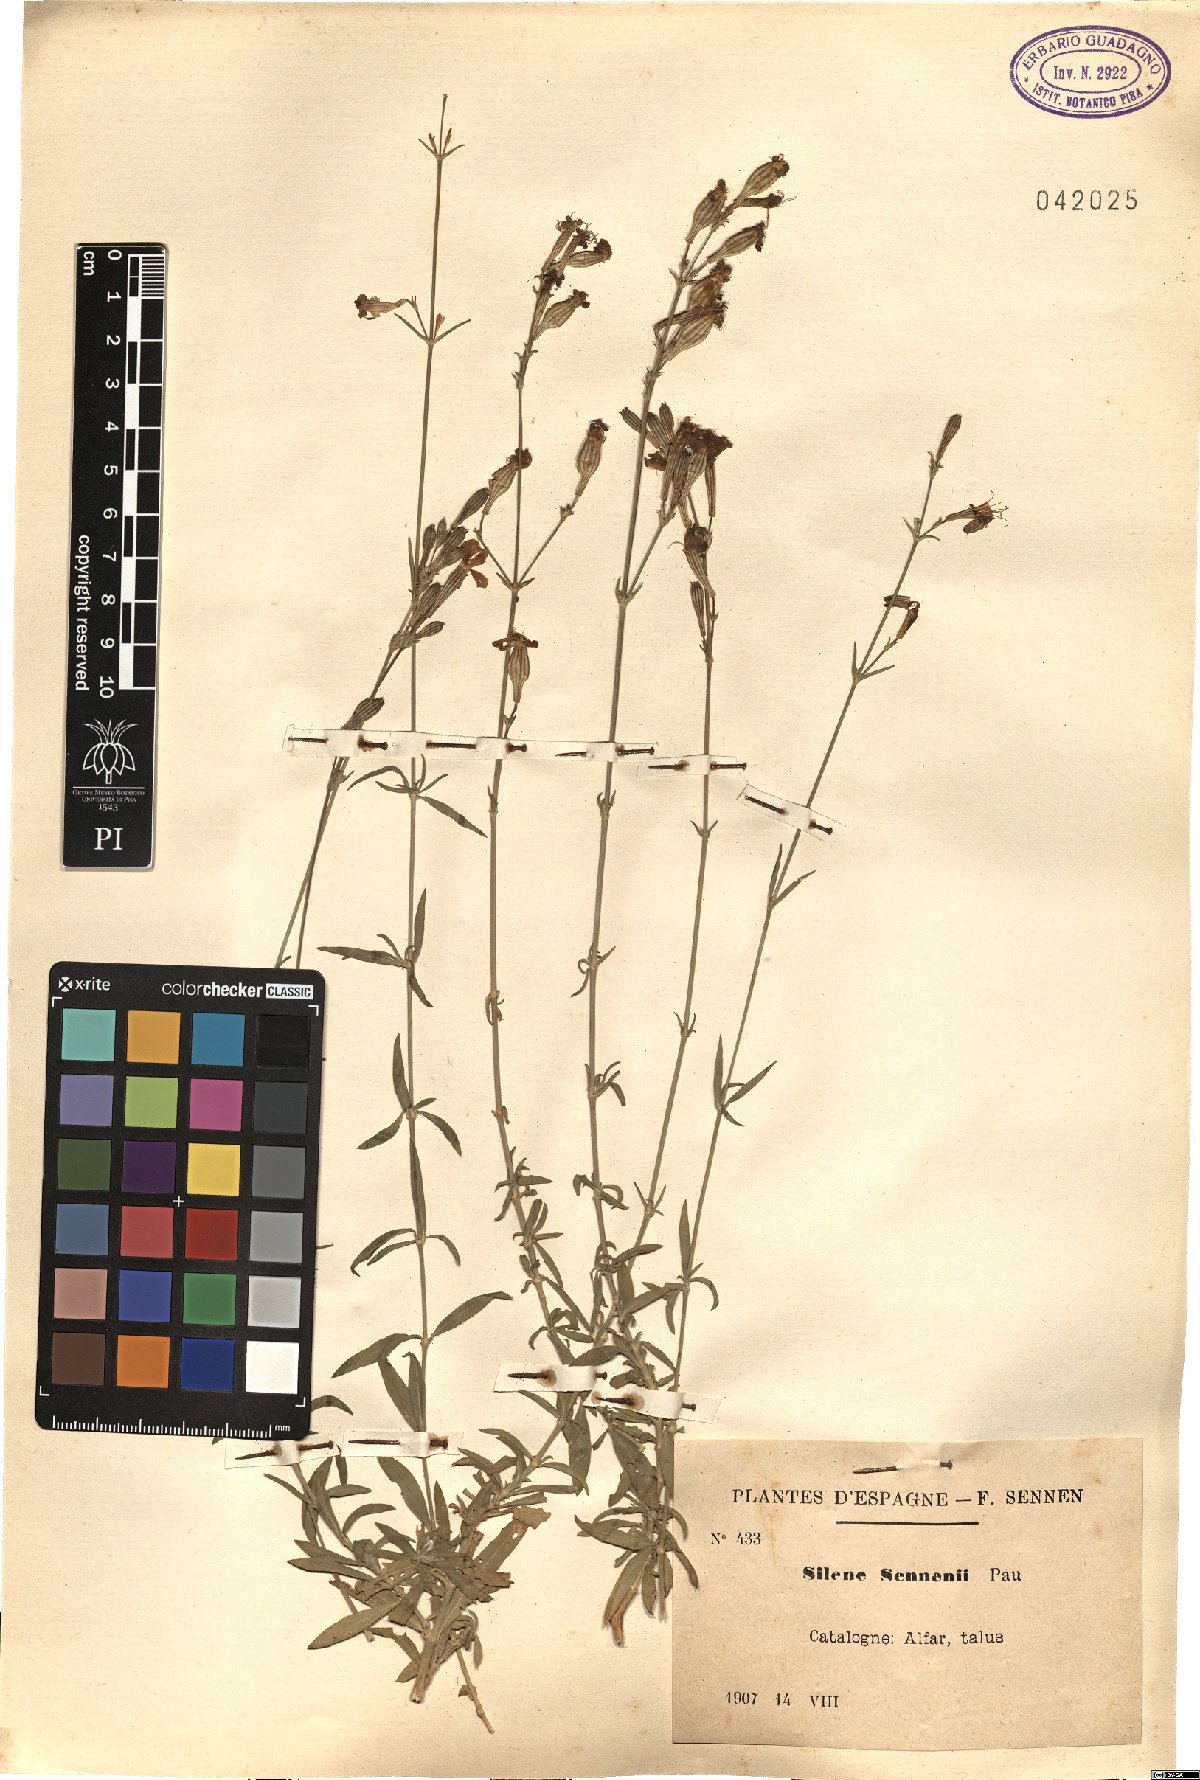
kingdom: Plantae
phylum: Tracheophyta
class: Magnoliopsida
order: Caryophyllales
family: Caryophyllaceae
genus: Silene
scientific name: Silene sennenii
